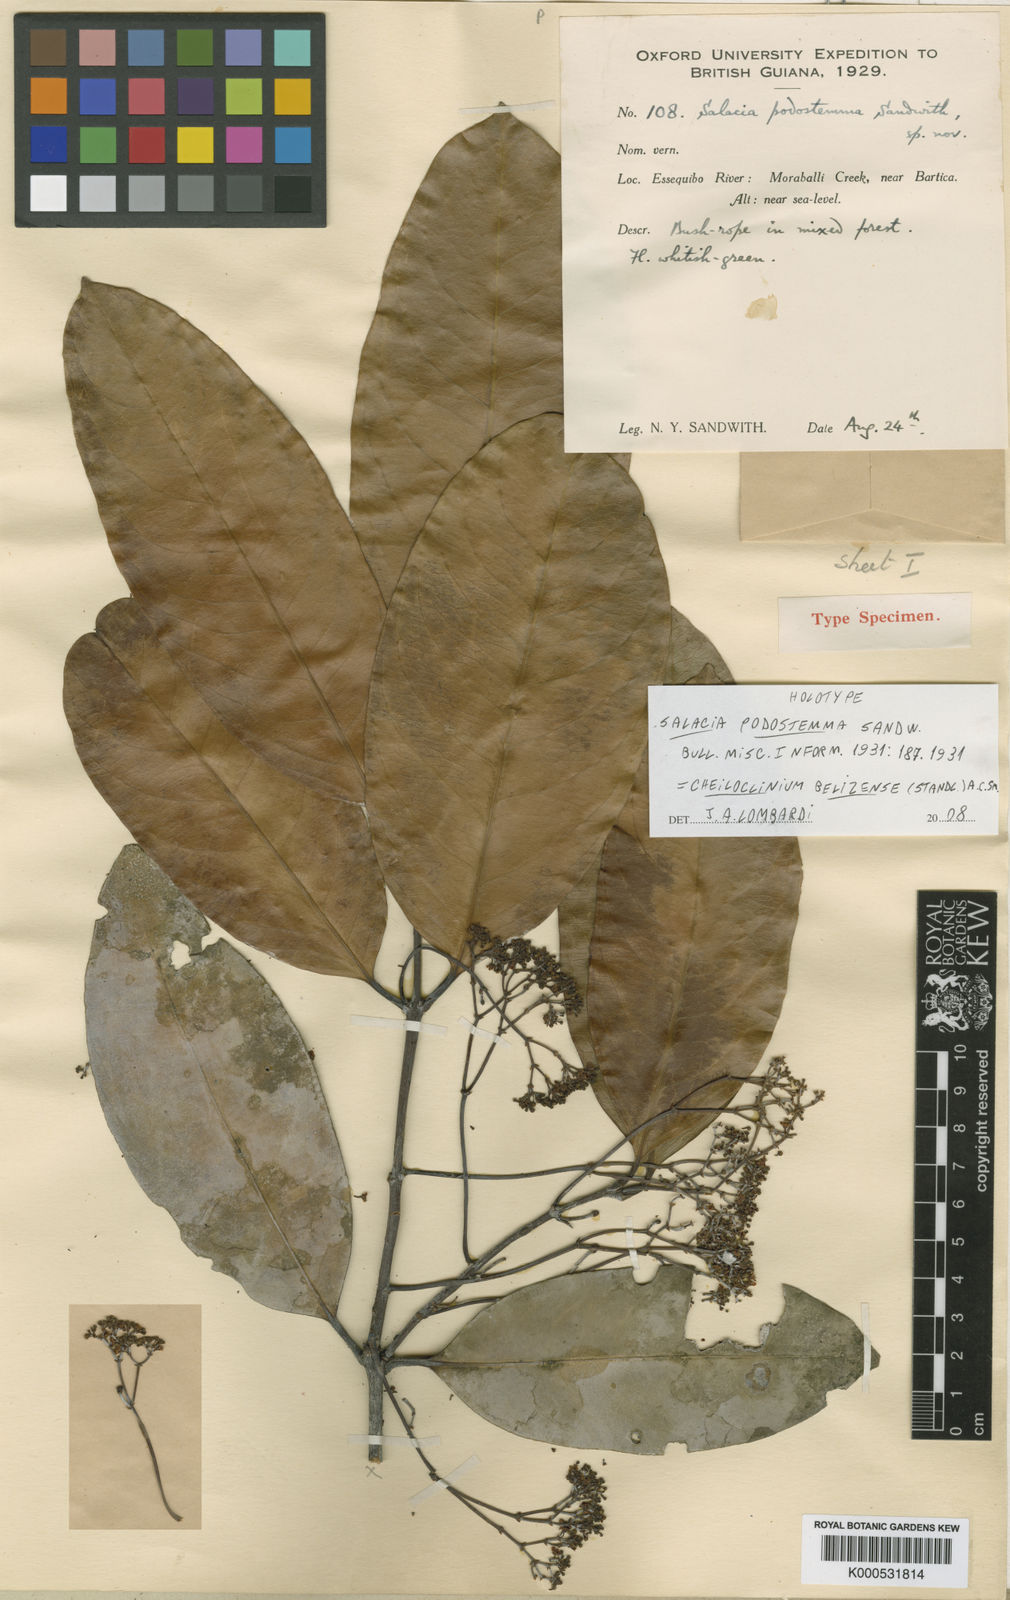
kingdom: Plantae
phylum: Tracheophyta
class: Magnoliopsida
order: Celastrales
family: Celastraceae
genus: Cheiloclinium
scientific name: Cheiloclinium belizense
